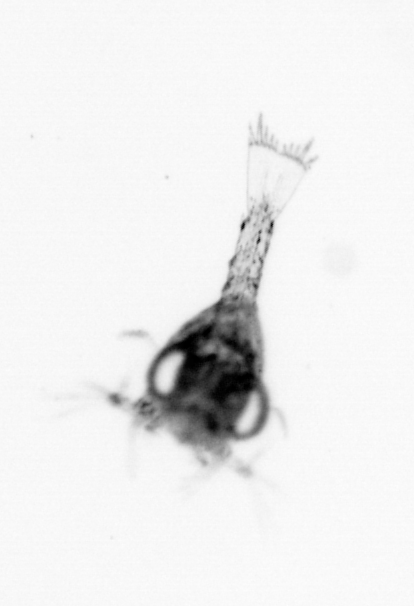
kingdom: Animalia
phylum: Arthropoda
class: Malacostraca
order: Decapoda
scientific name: Decapoda
